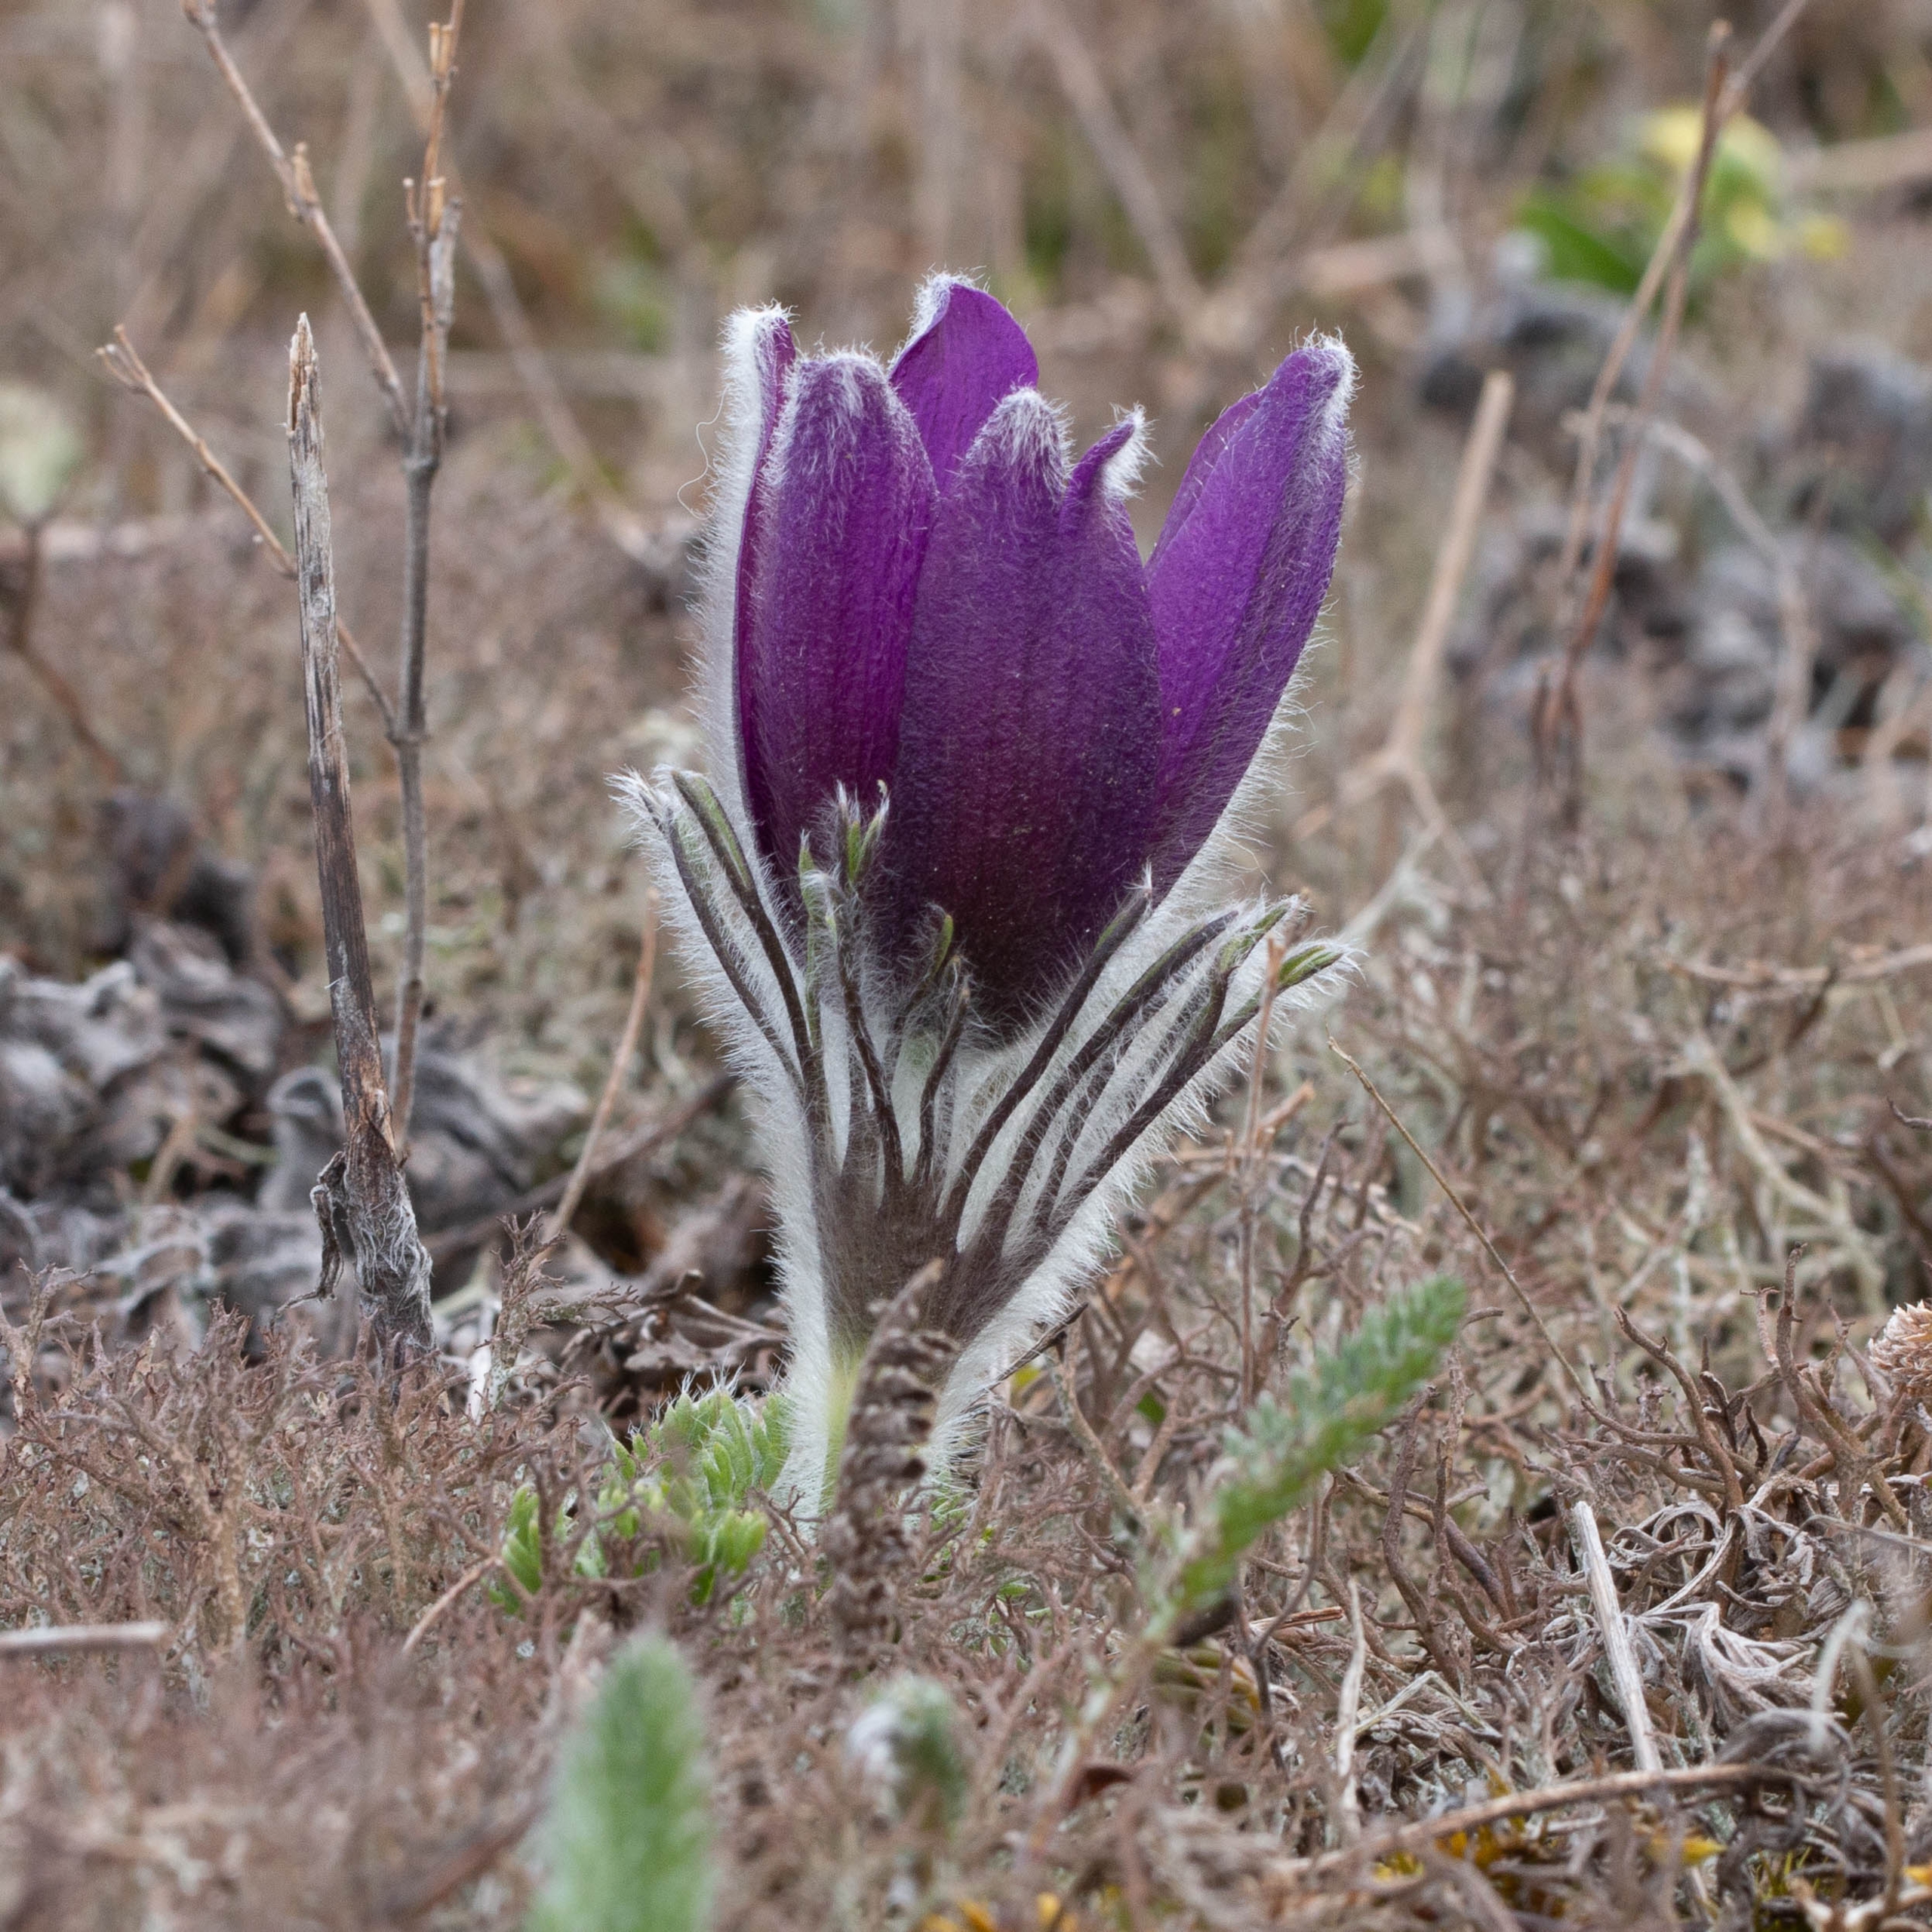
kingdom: Plantae
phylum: Tracheophyta
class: Magnoliopsida
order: Ranunculales
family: Ranunculaceae
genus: Pulsatilla
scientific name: Pulsatilla vulgaris
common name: Opret kobjælde
